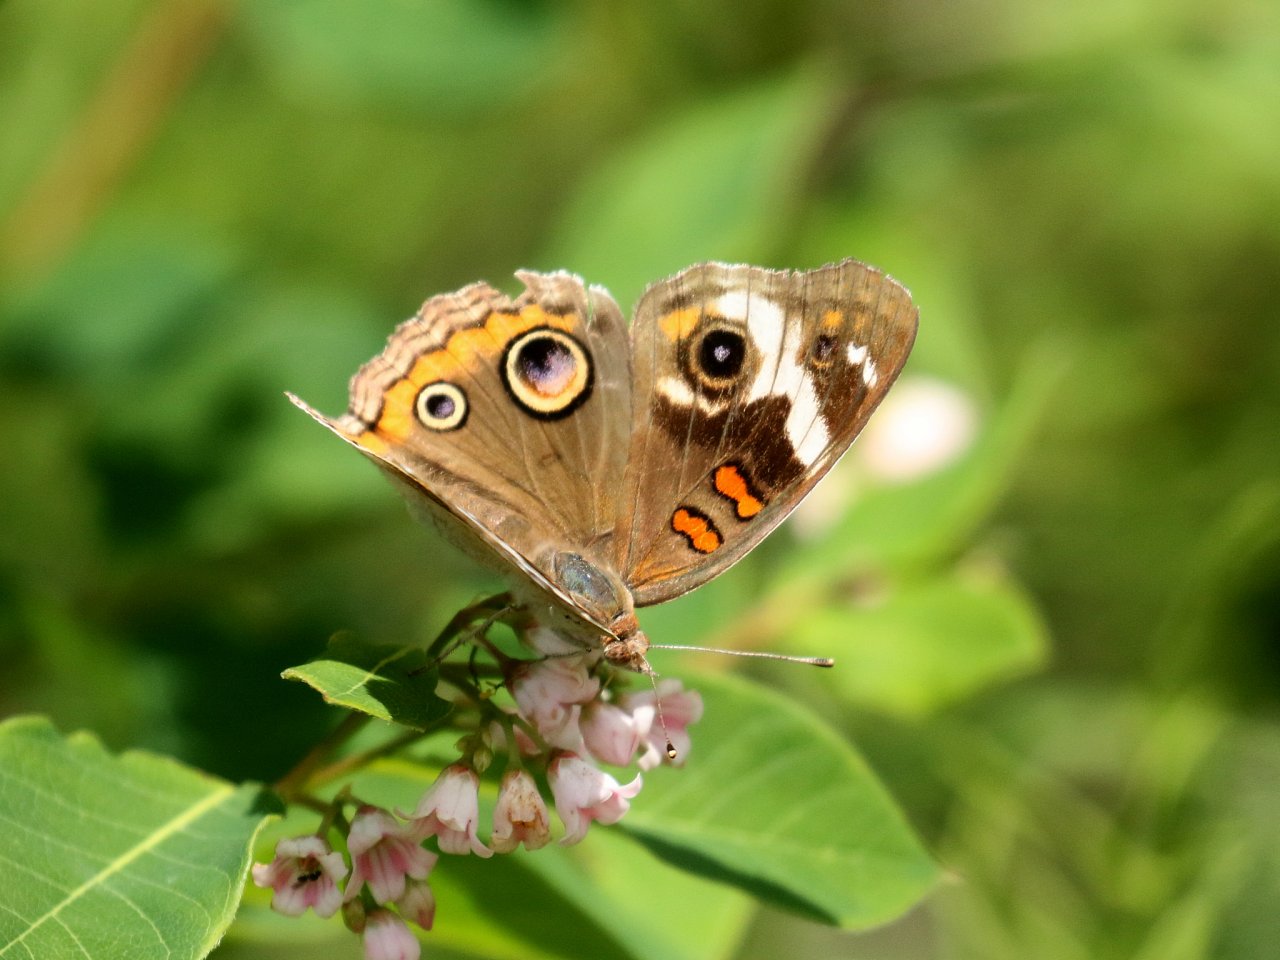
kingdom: Animalia
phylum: Arthropoda
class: Insecta
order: Lepidoptera
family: Nymphalidae
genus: Junonia
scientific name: Junonia coenia
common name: Common Buckeye
